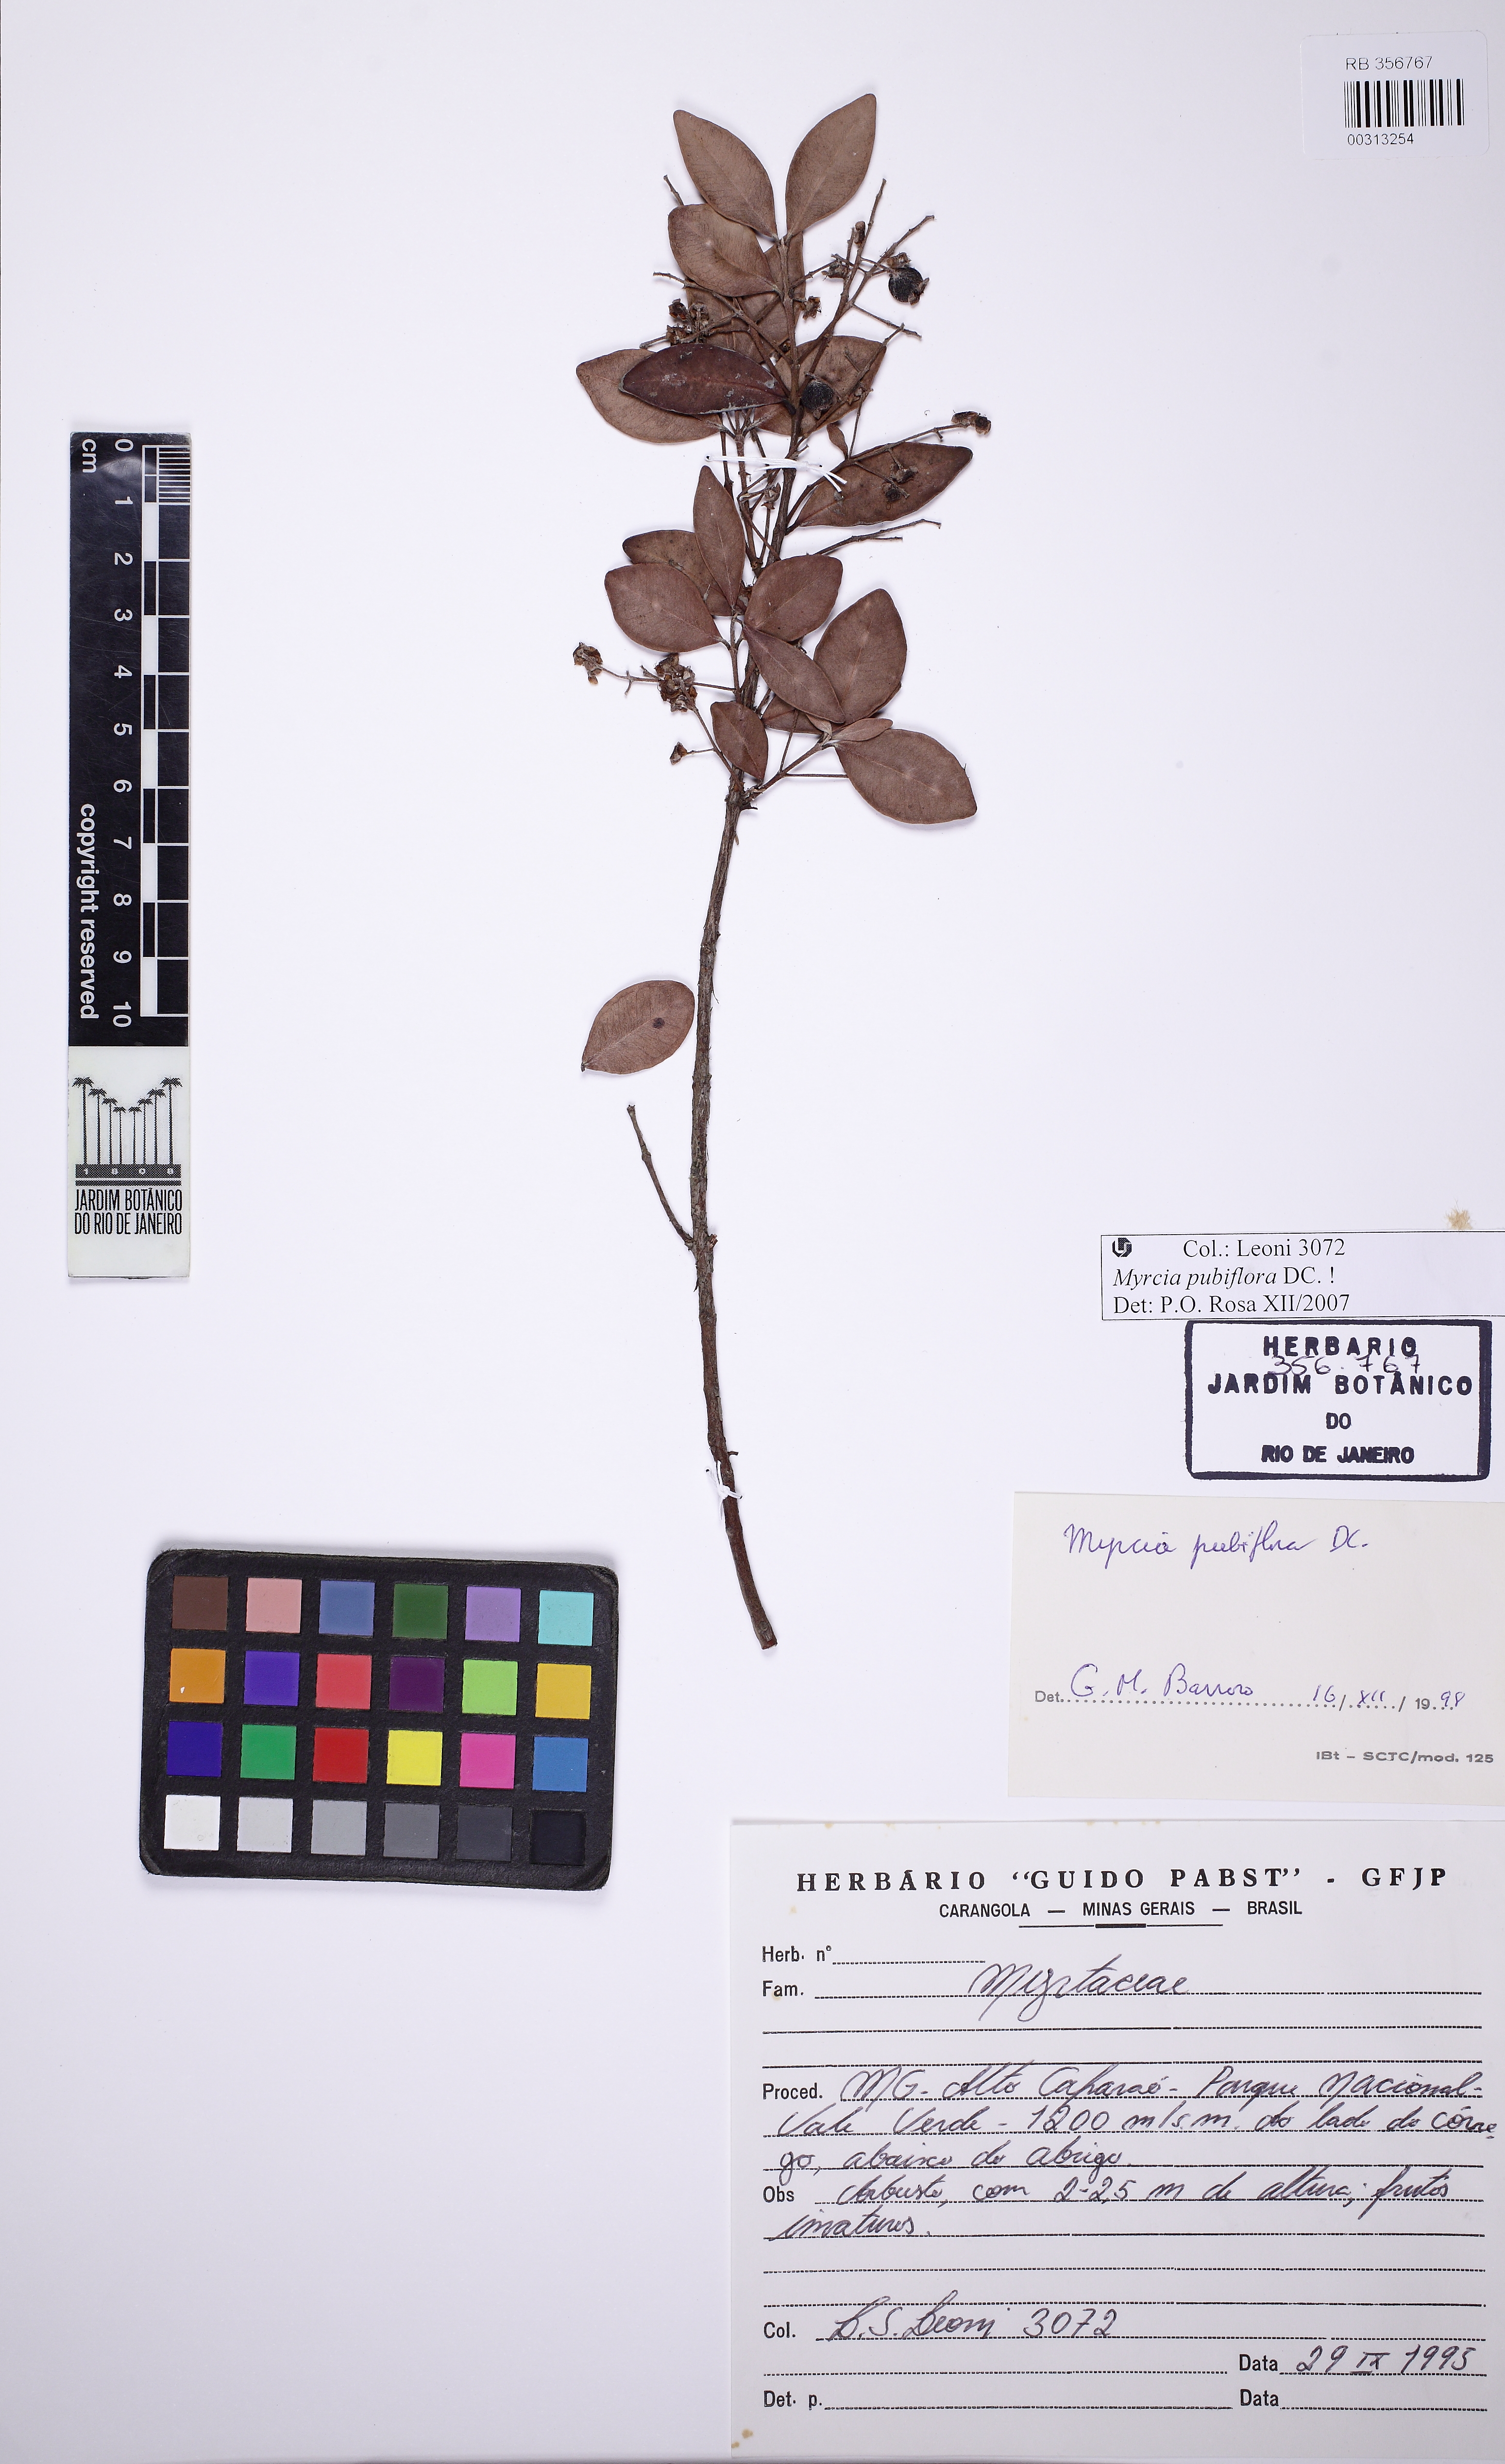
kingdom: Plantae
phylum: Tracheophyta
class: Magnoliopsida
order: Myrtales
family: Myrtaceae
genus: Myrcia
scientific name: Myrcia pubiflora
